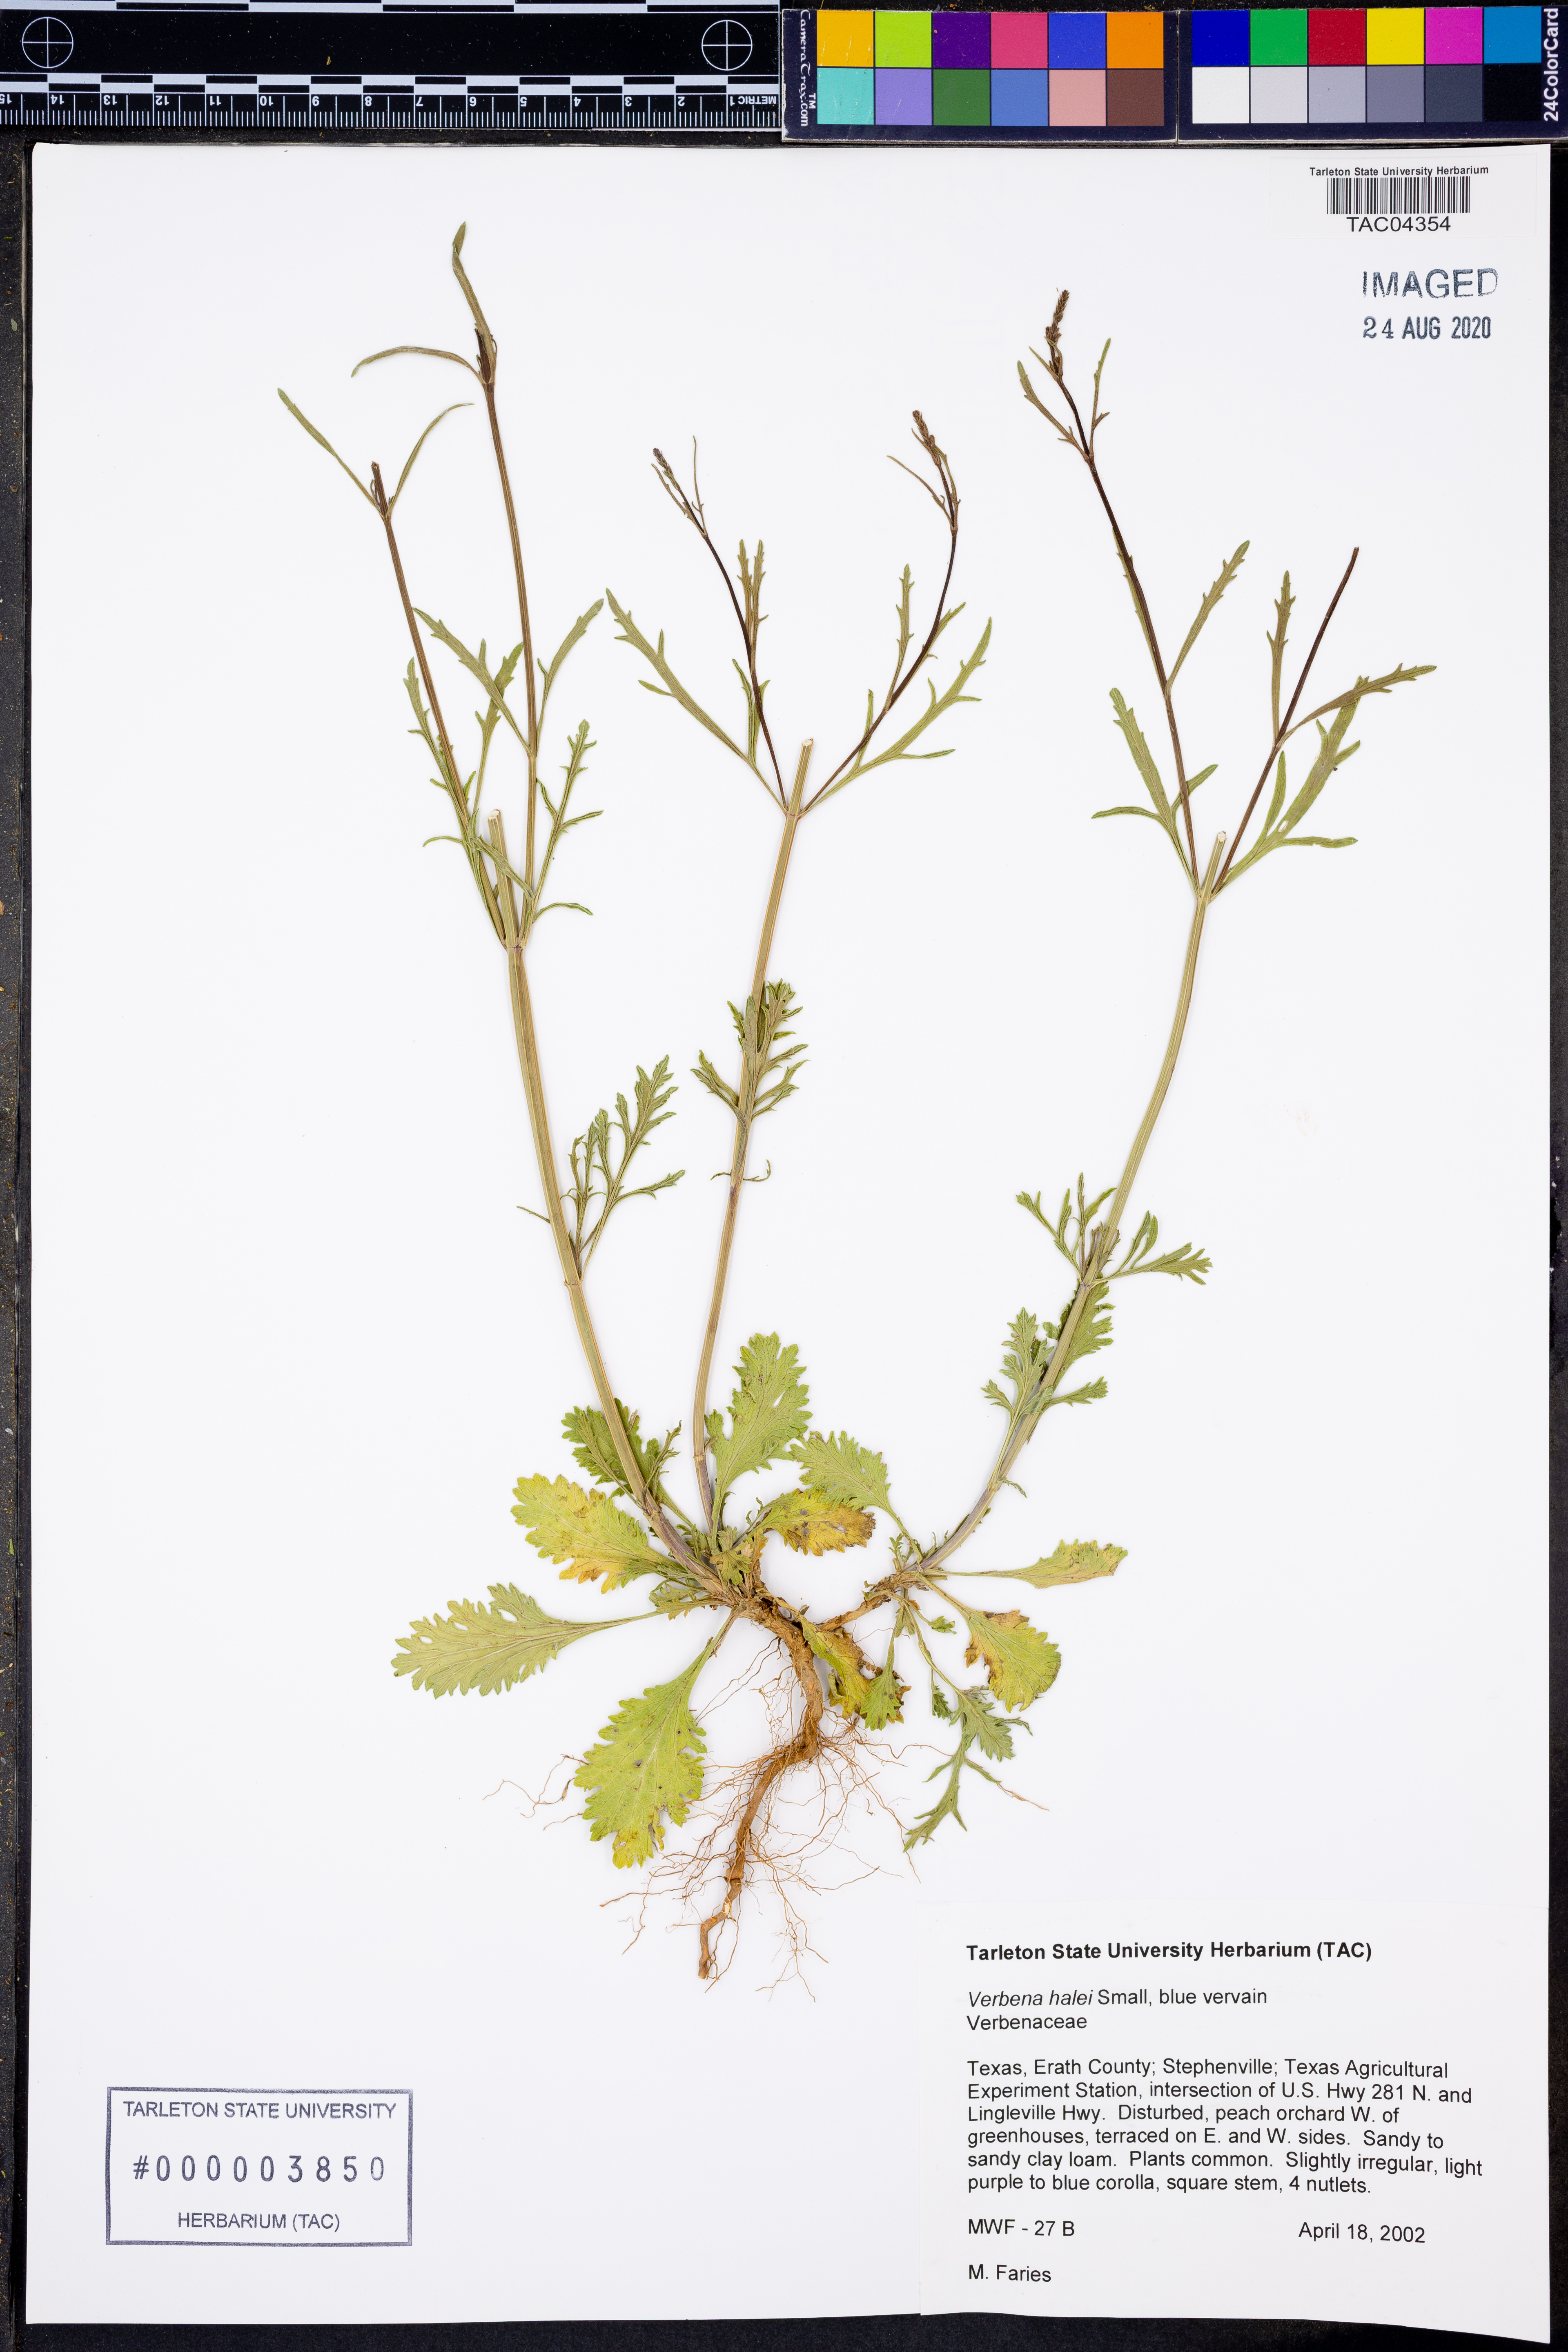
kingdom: Plantae
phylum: Tracheophyta
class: Magnoliopsida
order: Lamiales
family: Verbenaceae
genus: Verbena
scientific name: Verbena halei
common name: Texas vervain
